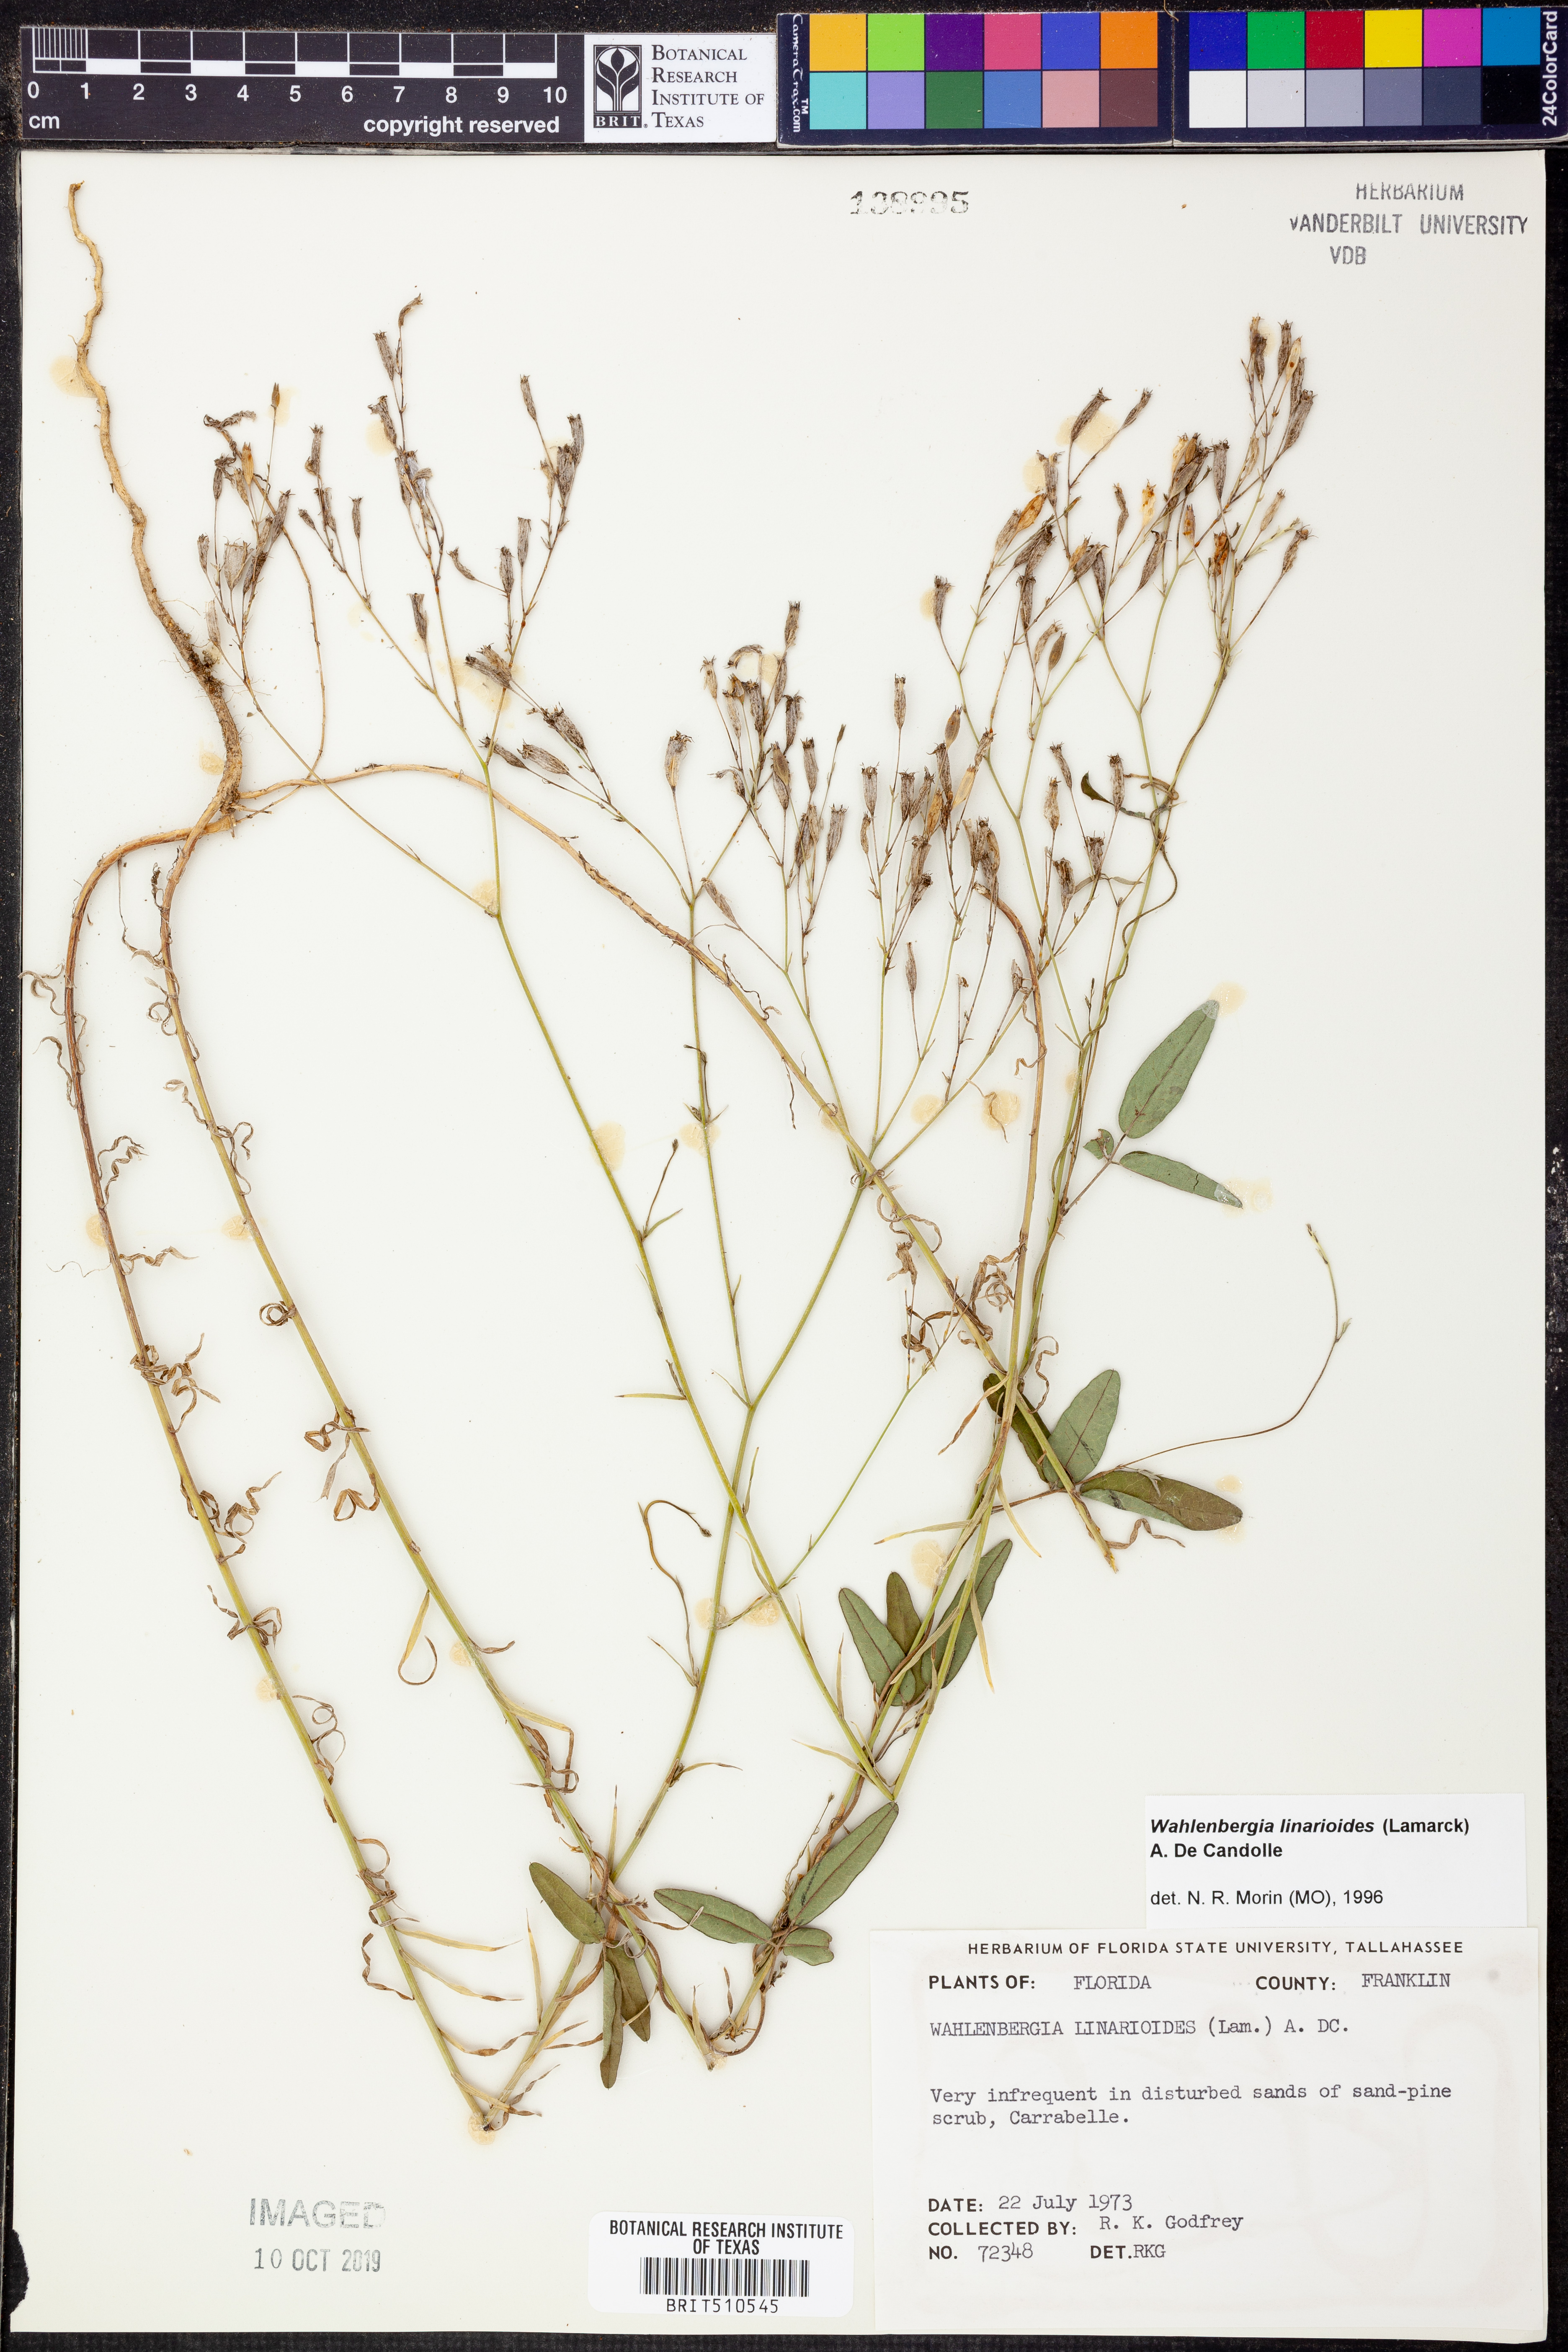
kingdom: Plantae
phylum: Tracheophyta
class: Magnoliopsida
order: Asterales
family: Campanulaceae
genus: Wahlenbergia
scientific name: Wahlenbergia linarioides
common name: Tuffybells
